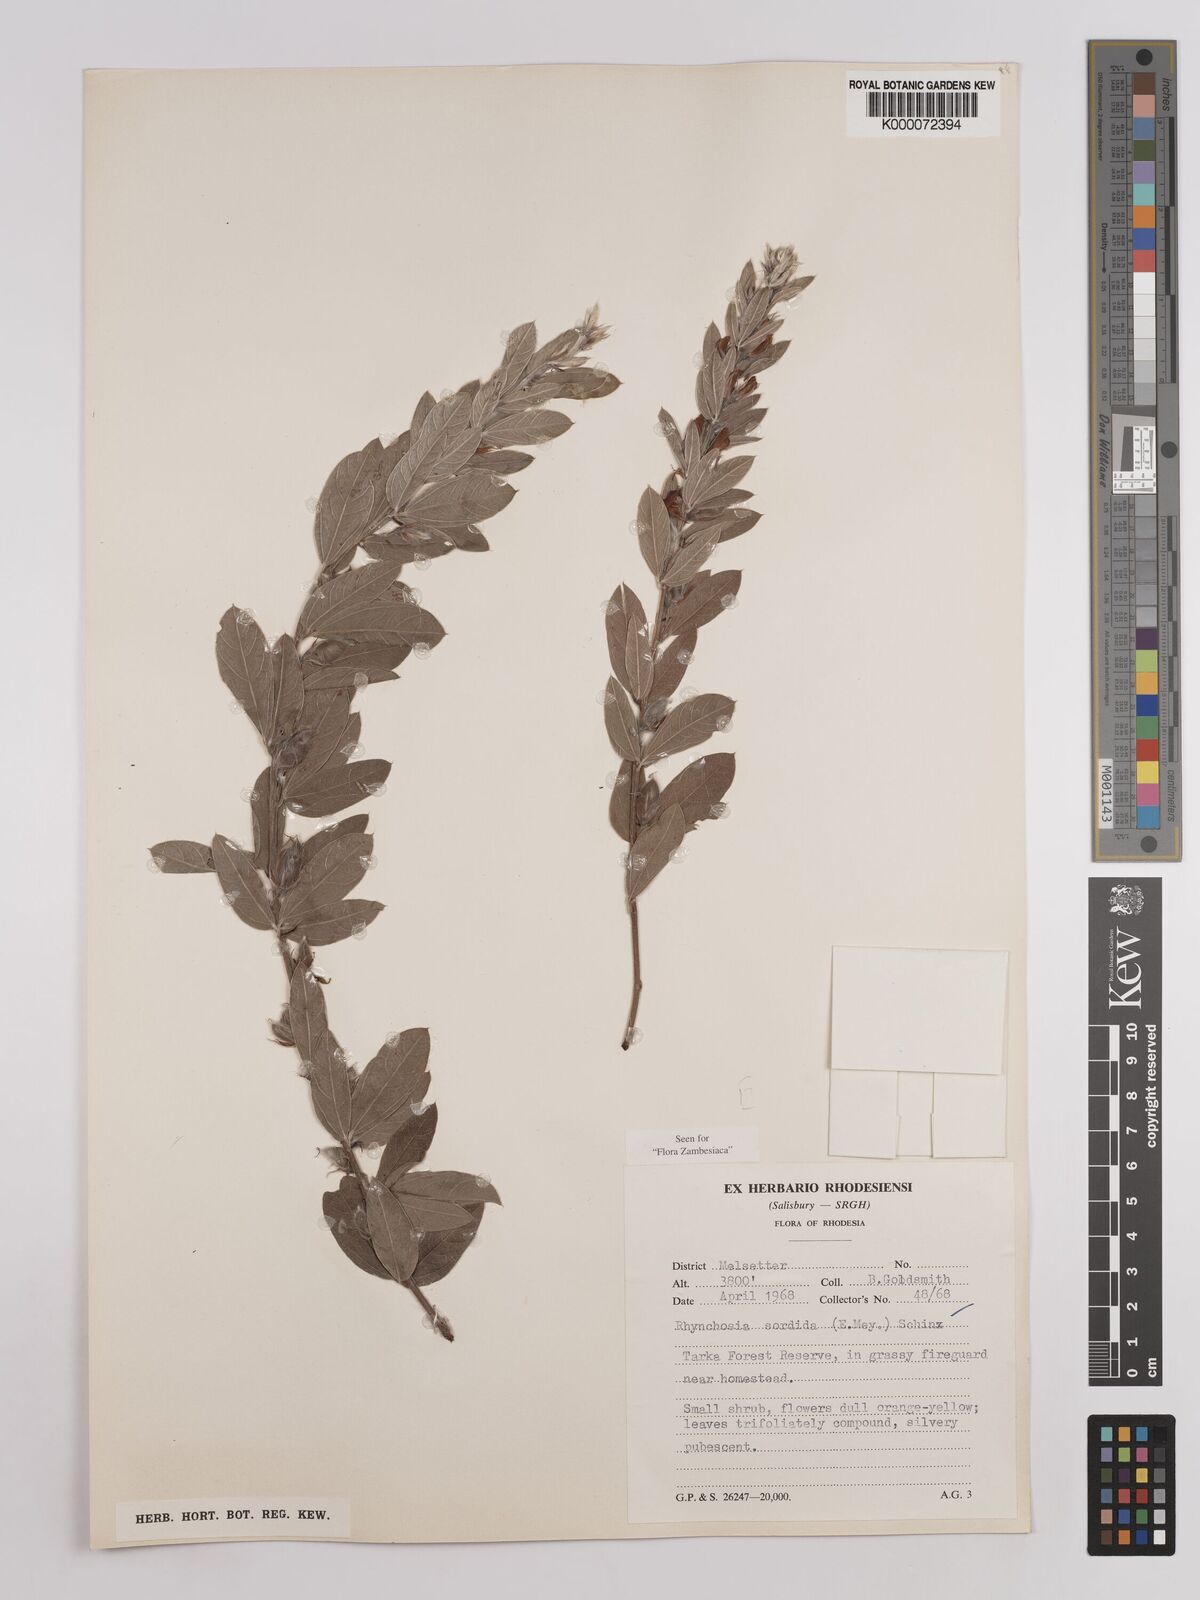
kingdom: Plantae
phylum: Tracheophyta
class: Magnoliopsida
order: Fabales
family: Fabaceae
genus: Rhynchosia
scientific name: Rhynchosia sordida
